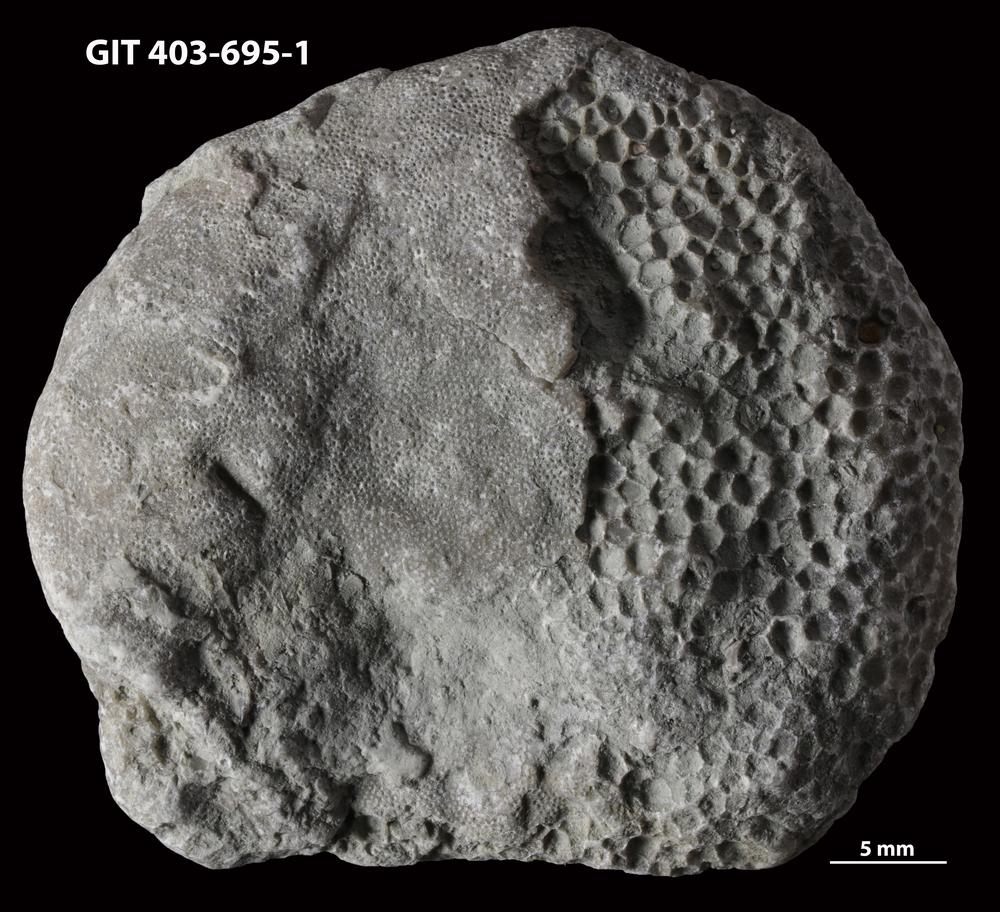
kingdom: Animalia
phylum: Bryozoa
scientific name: Bryozoa
